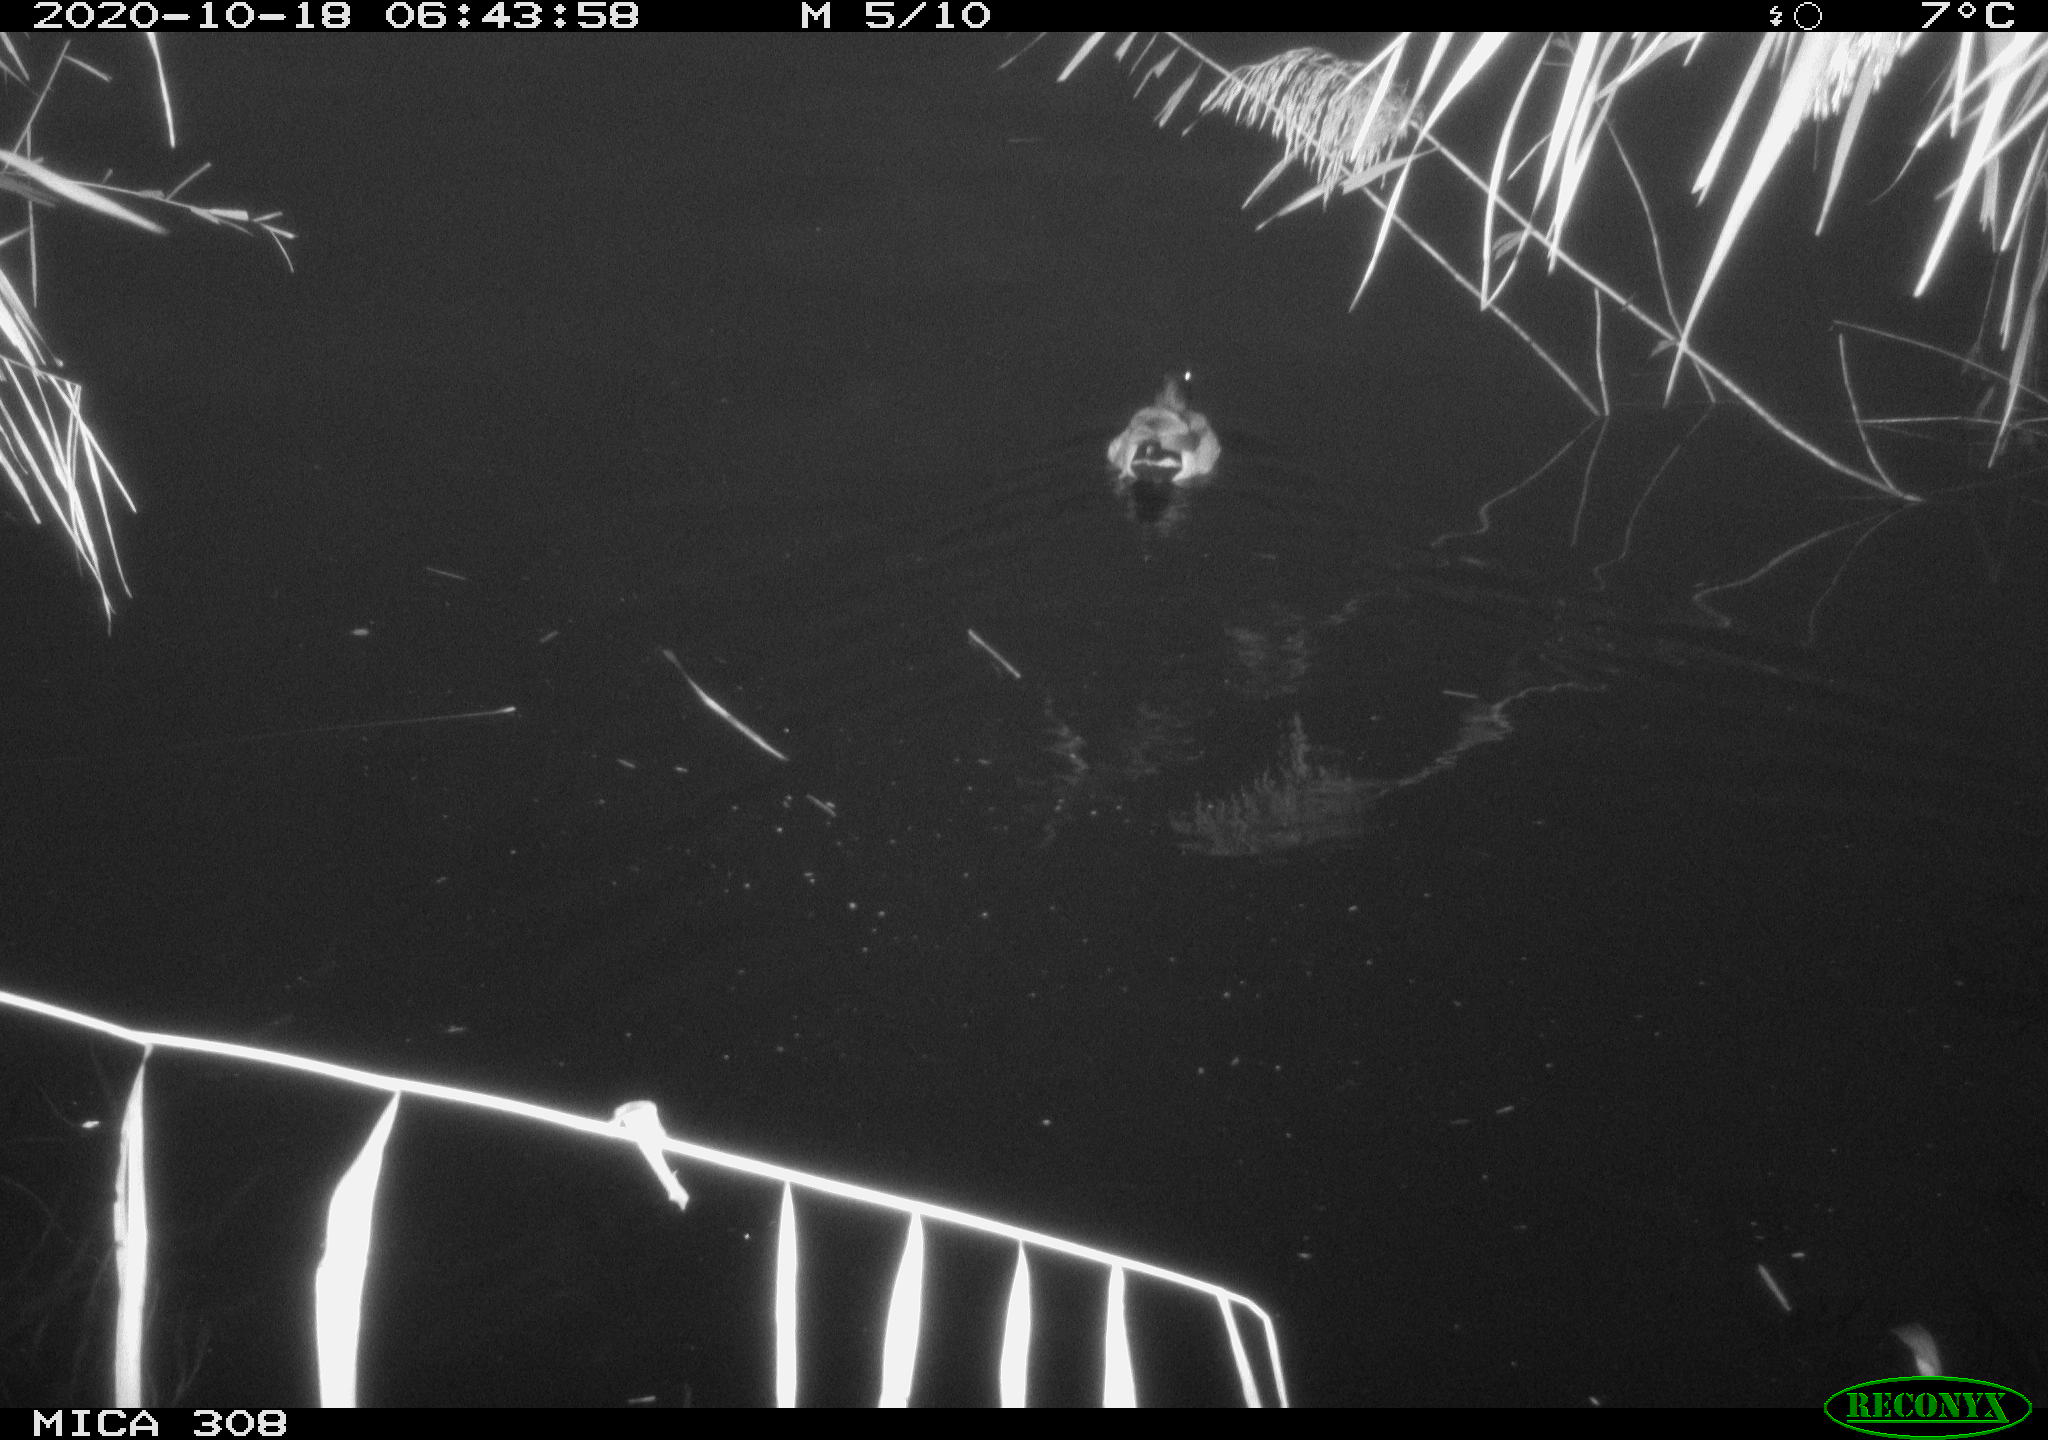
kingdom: Animalia
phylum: Chordata
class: Aves
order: Anseriformes
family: Anatidae
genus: Anas
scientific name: Anas platyrhynchos
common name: Mallard
